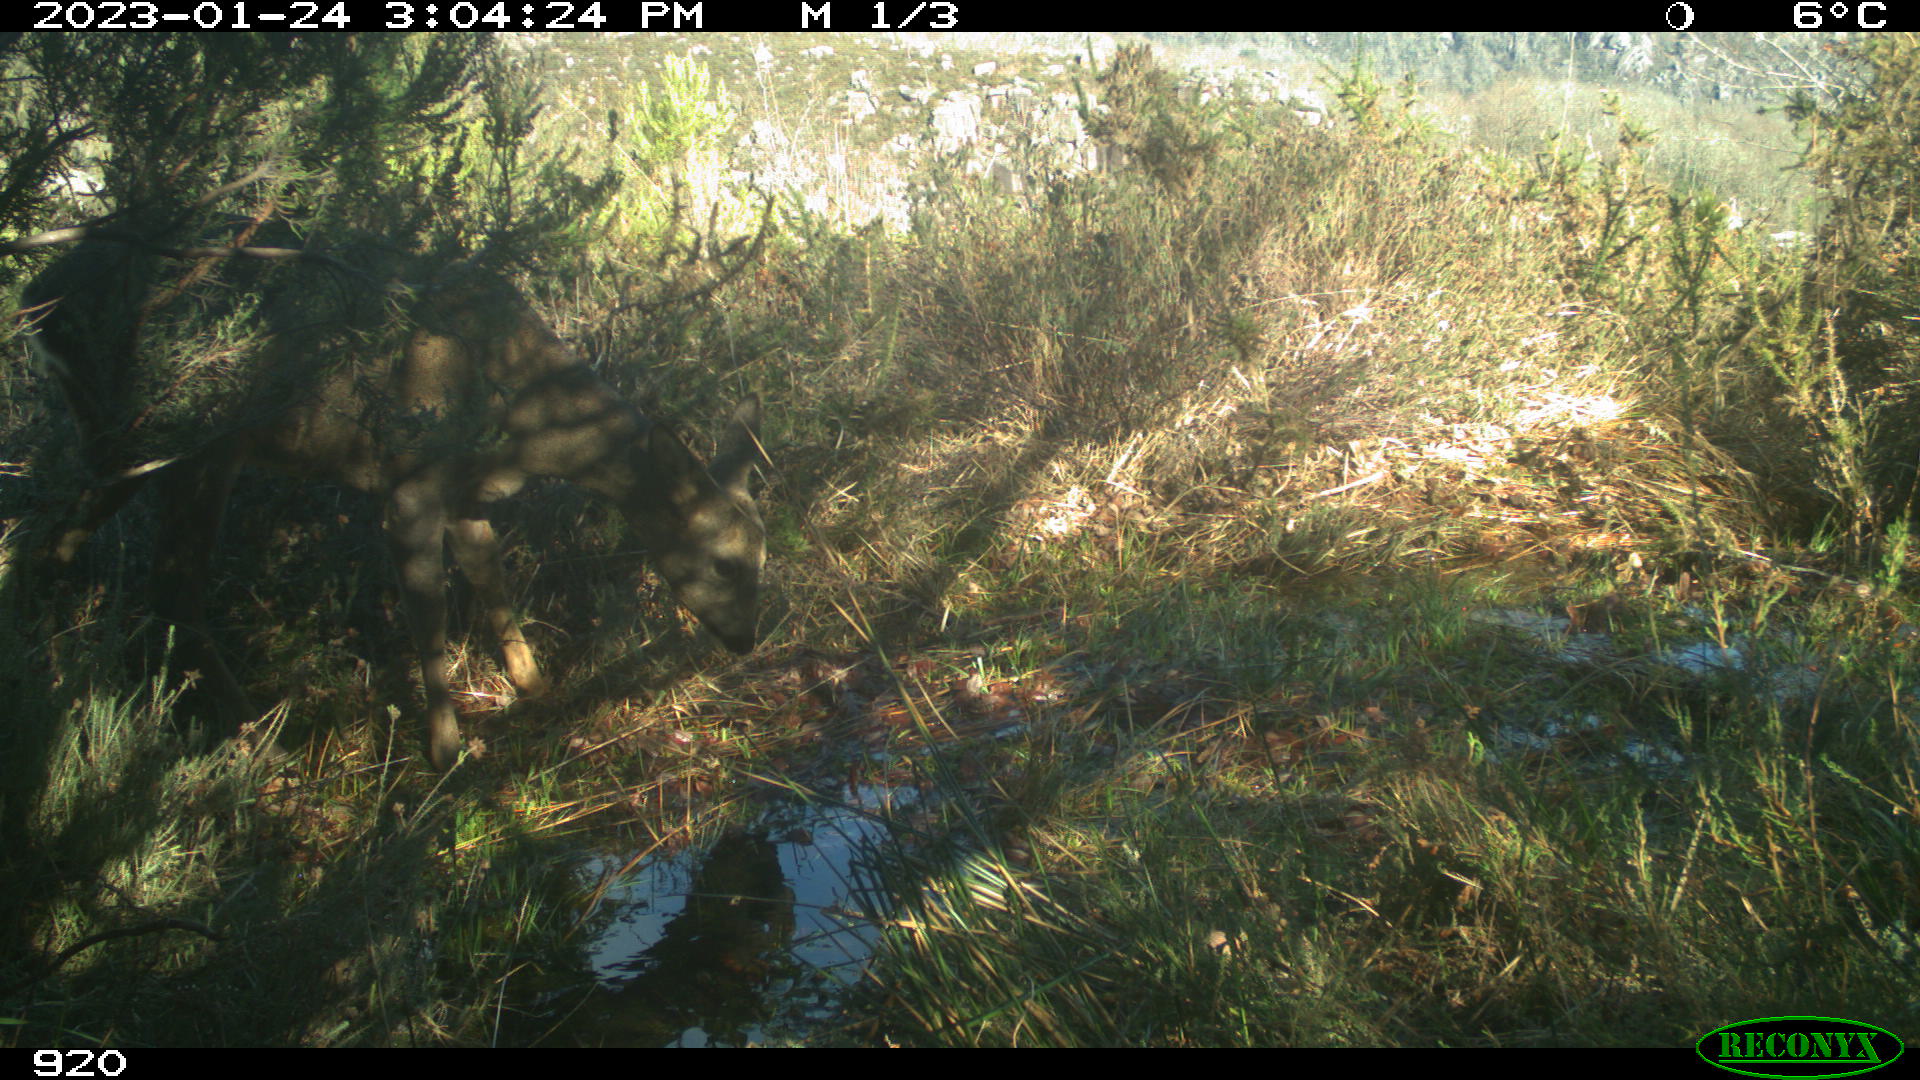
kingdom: Animalia
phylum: Chordata
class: Mammalia
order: Artiodactyla
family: Cervidae
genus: Capreolus
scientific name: Capreolus capreolus
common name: Western roe deer
